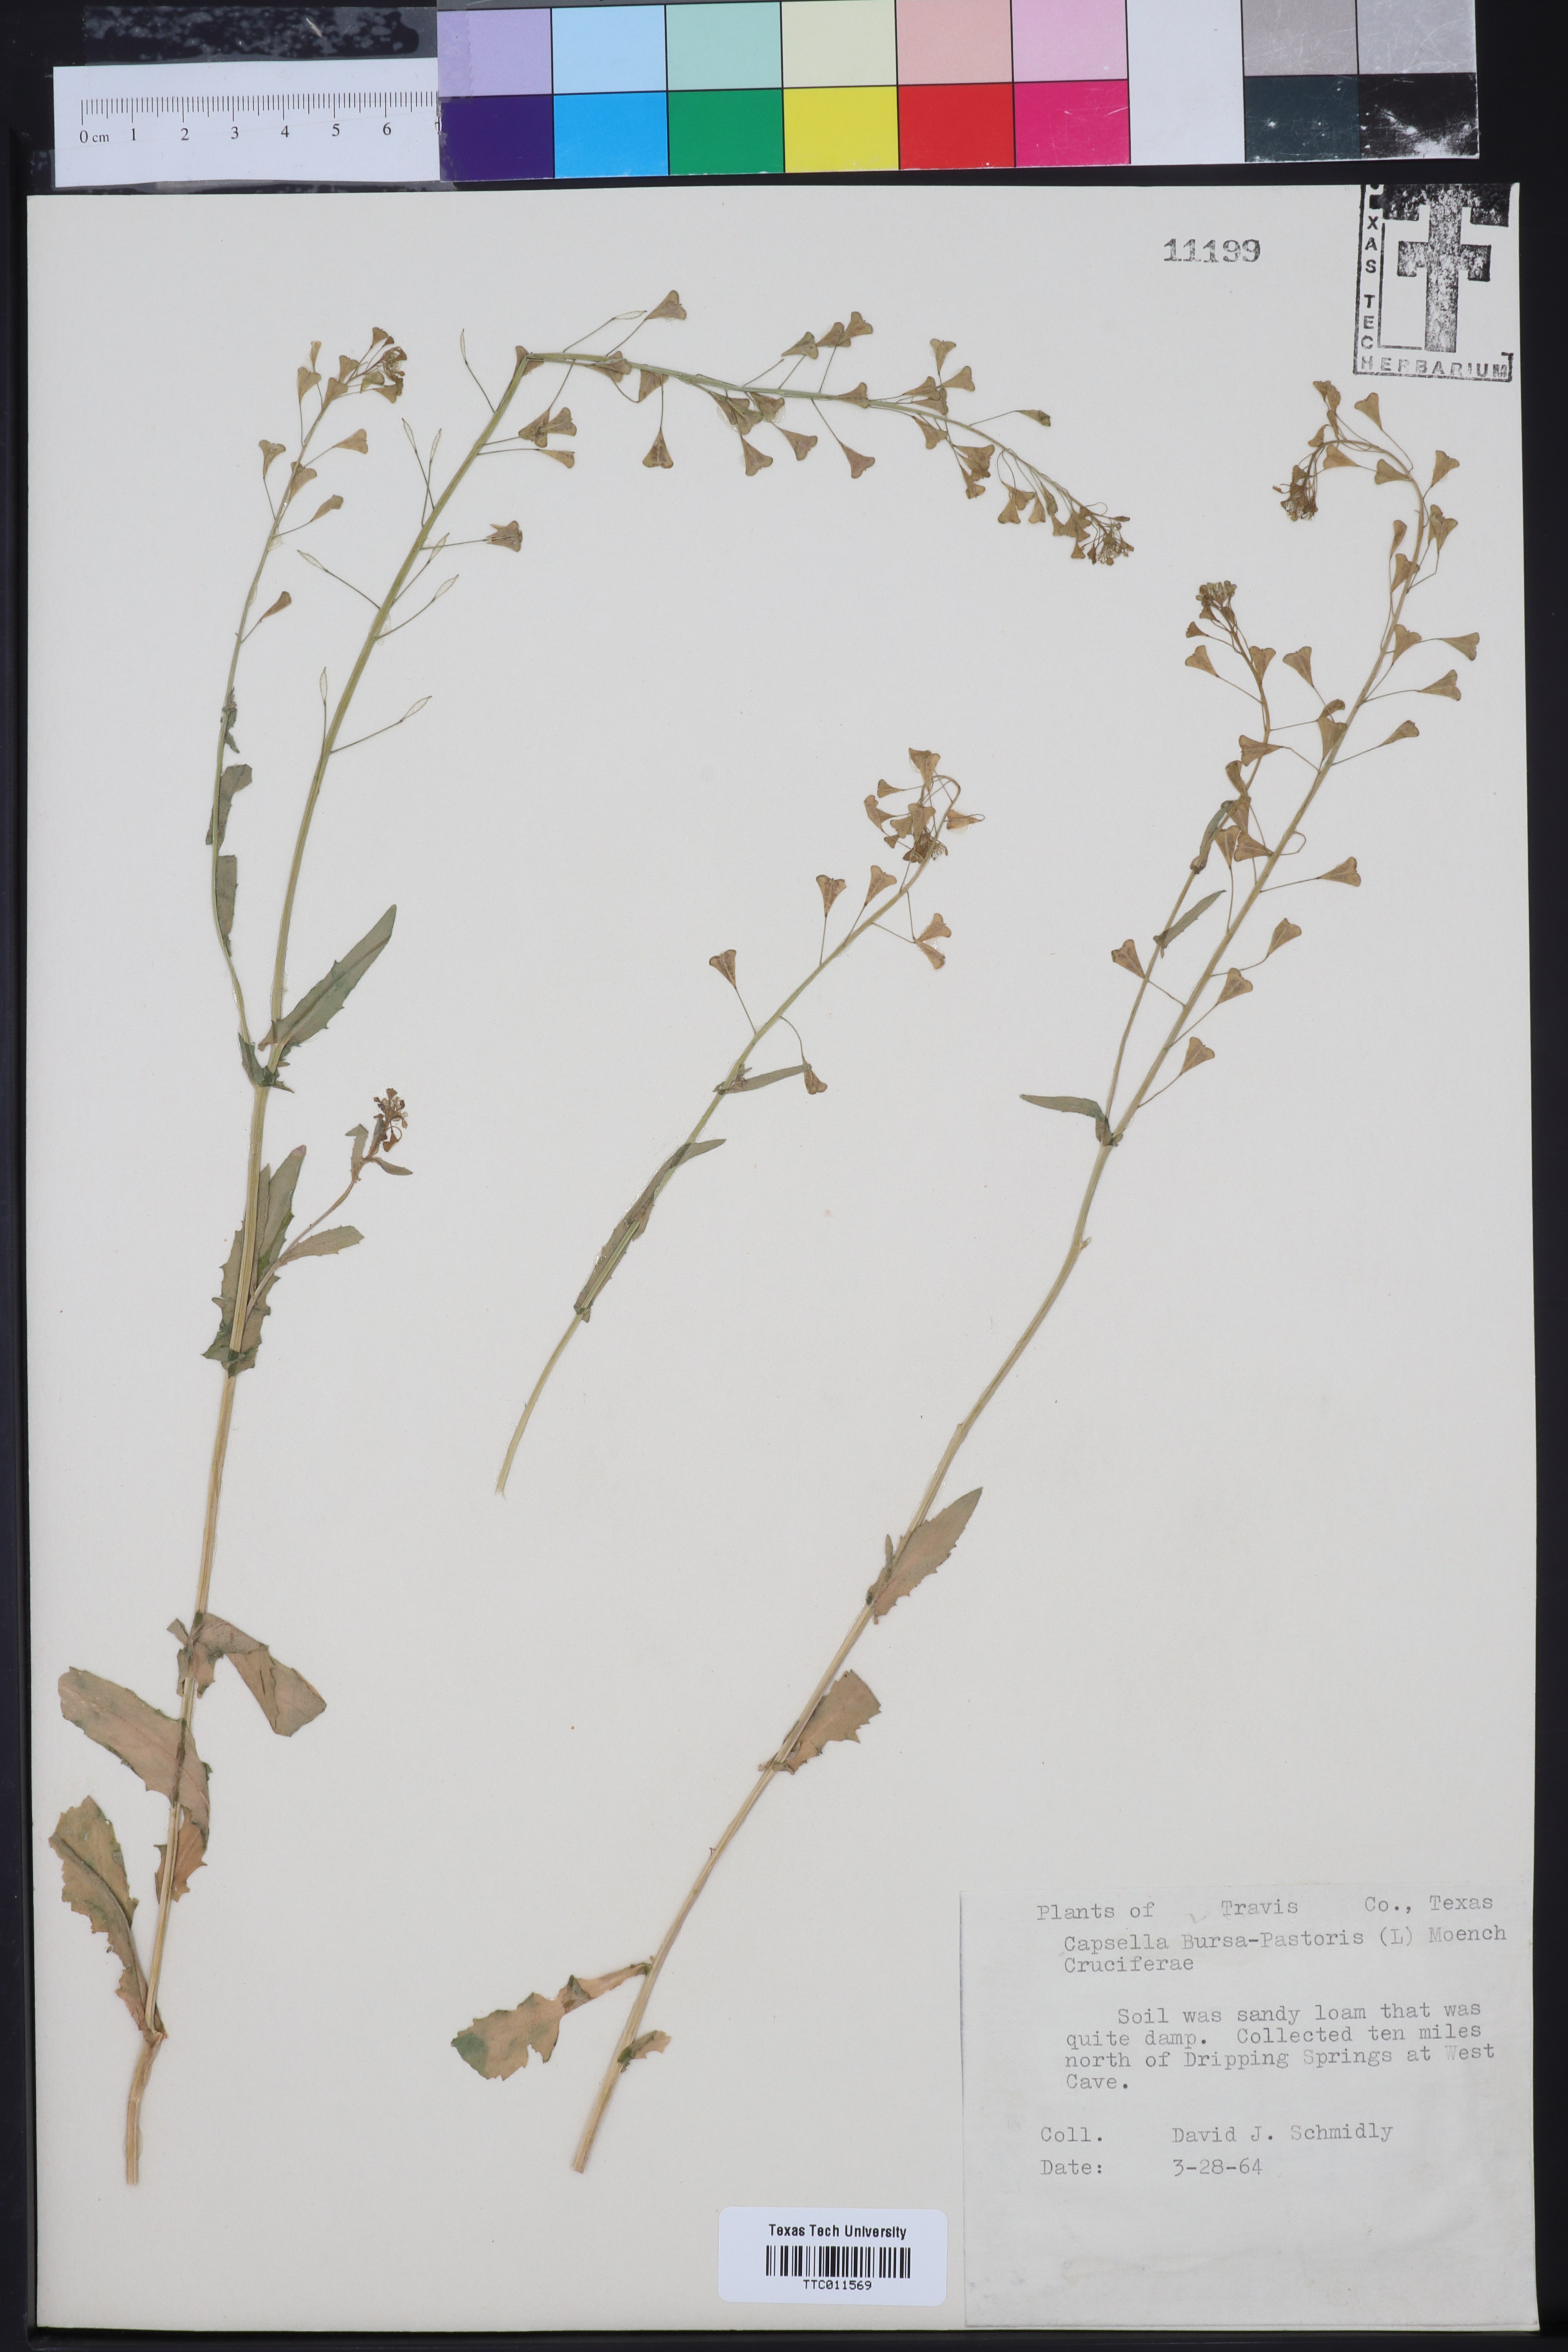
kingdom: Plantae
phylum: Tracheophyta
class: Magnoliopsida
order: Brassicales
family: Brassicaceae
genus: Capsella
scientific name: Capsella bursa-pastoris
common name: Shepherd's purse
